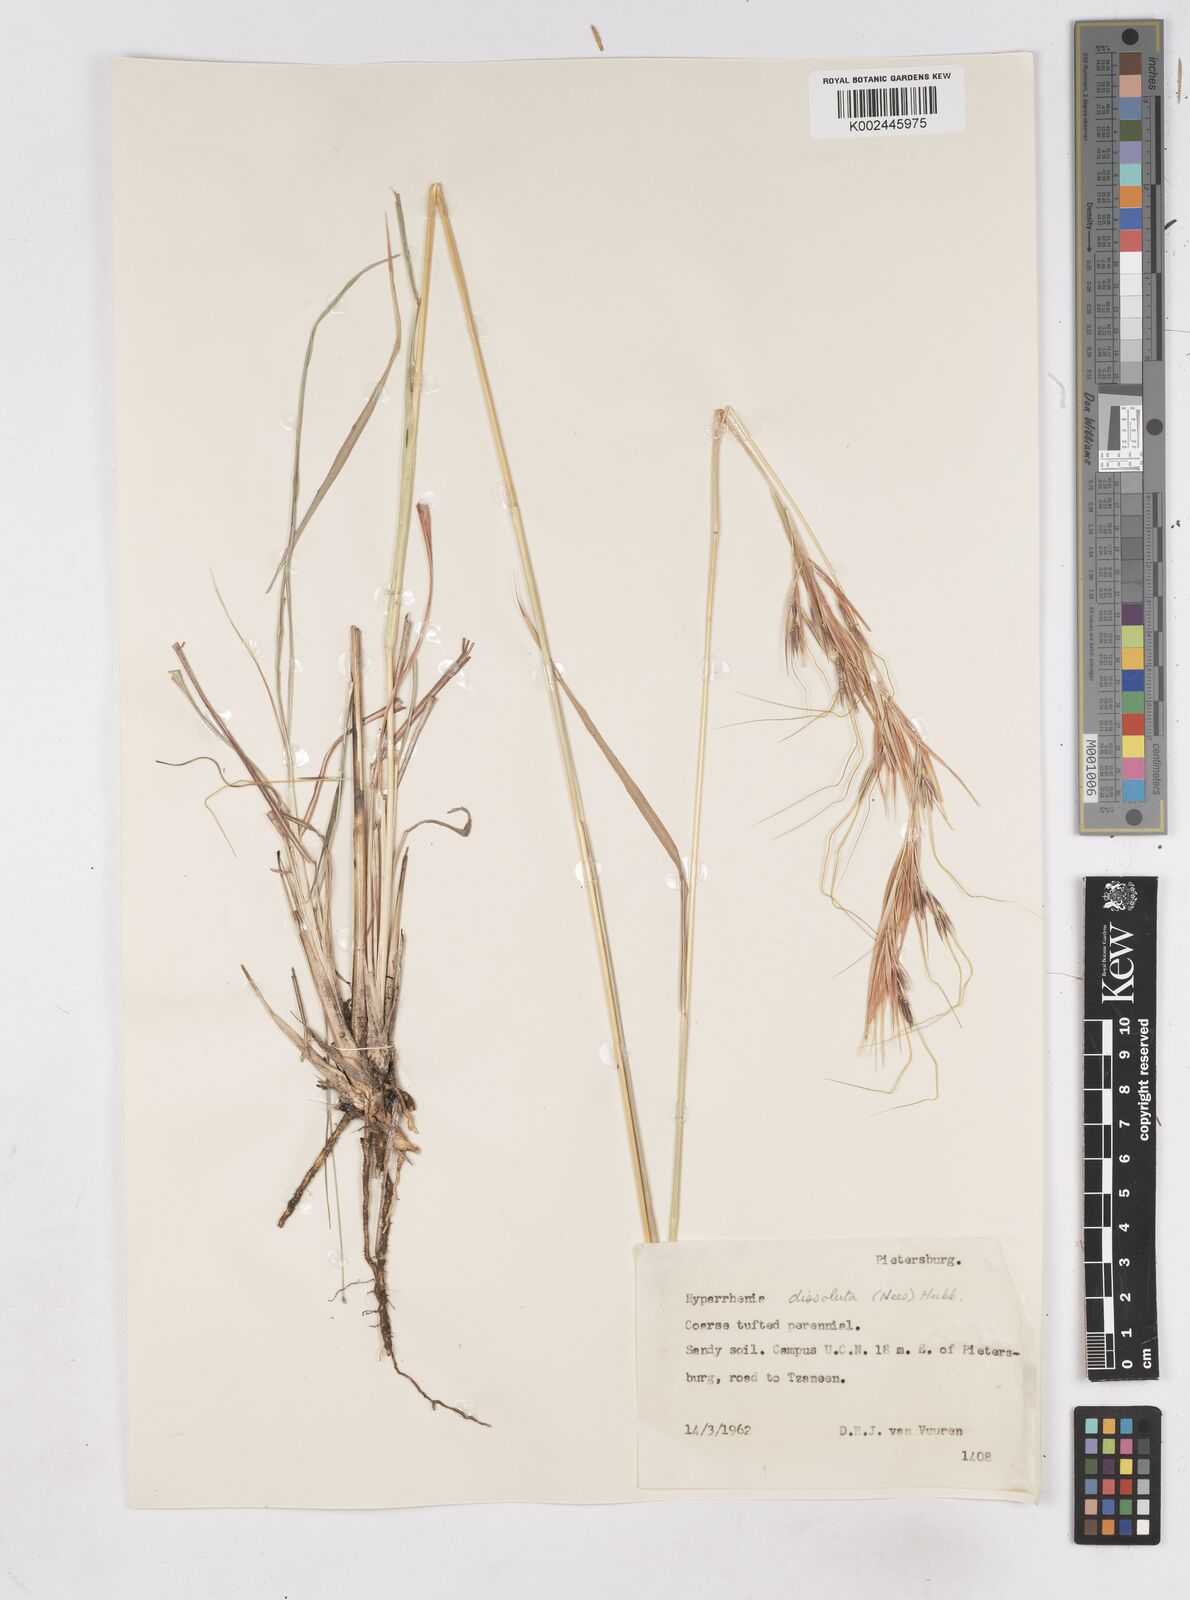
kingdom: Plantae
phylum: Tracheophyta
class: Liliopsida
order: Poales
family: Poaceae
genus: Hyperthelia
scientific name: Hyperthelia dissoluta
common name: Yellow thatching grass
